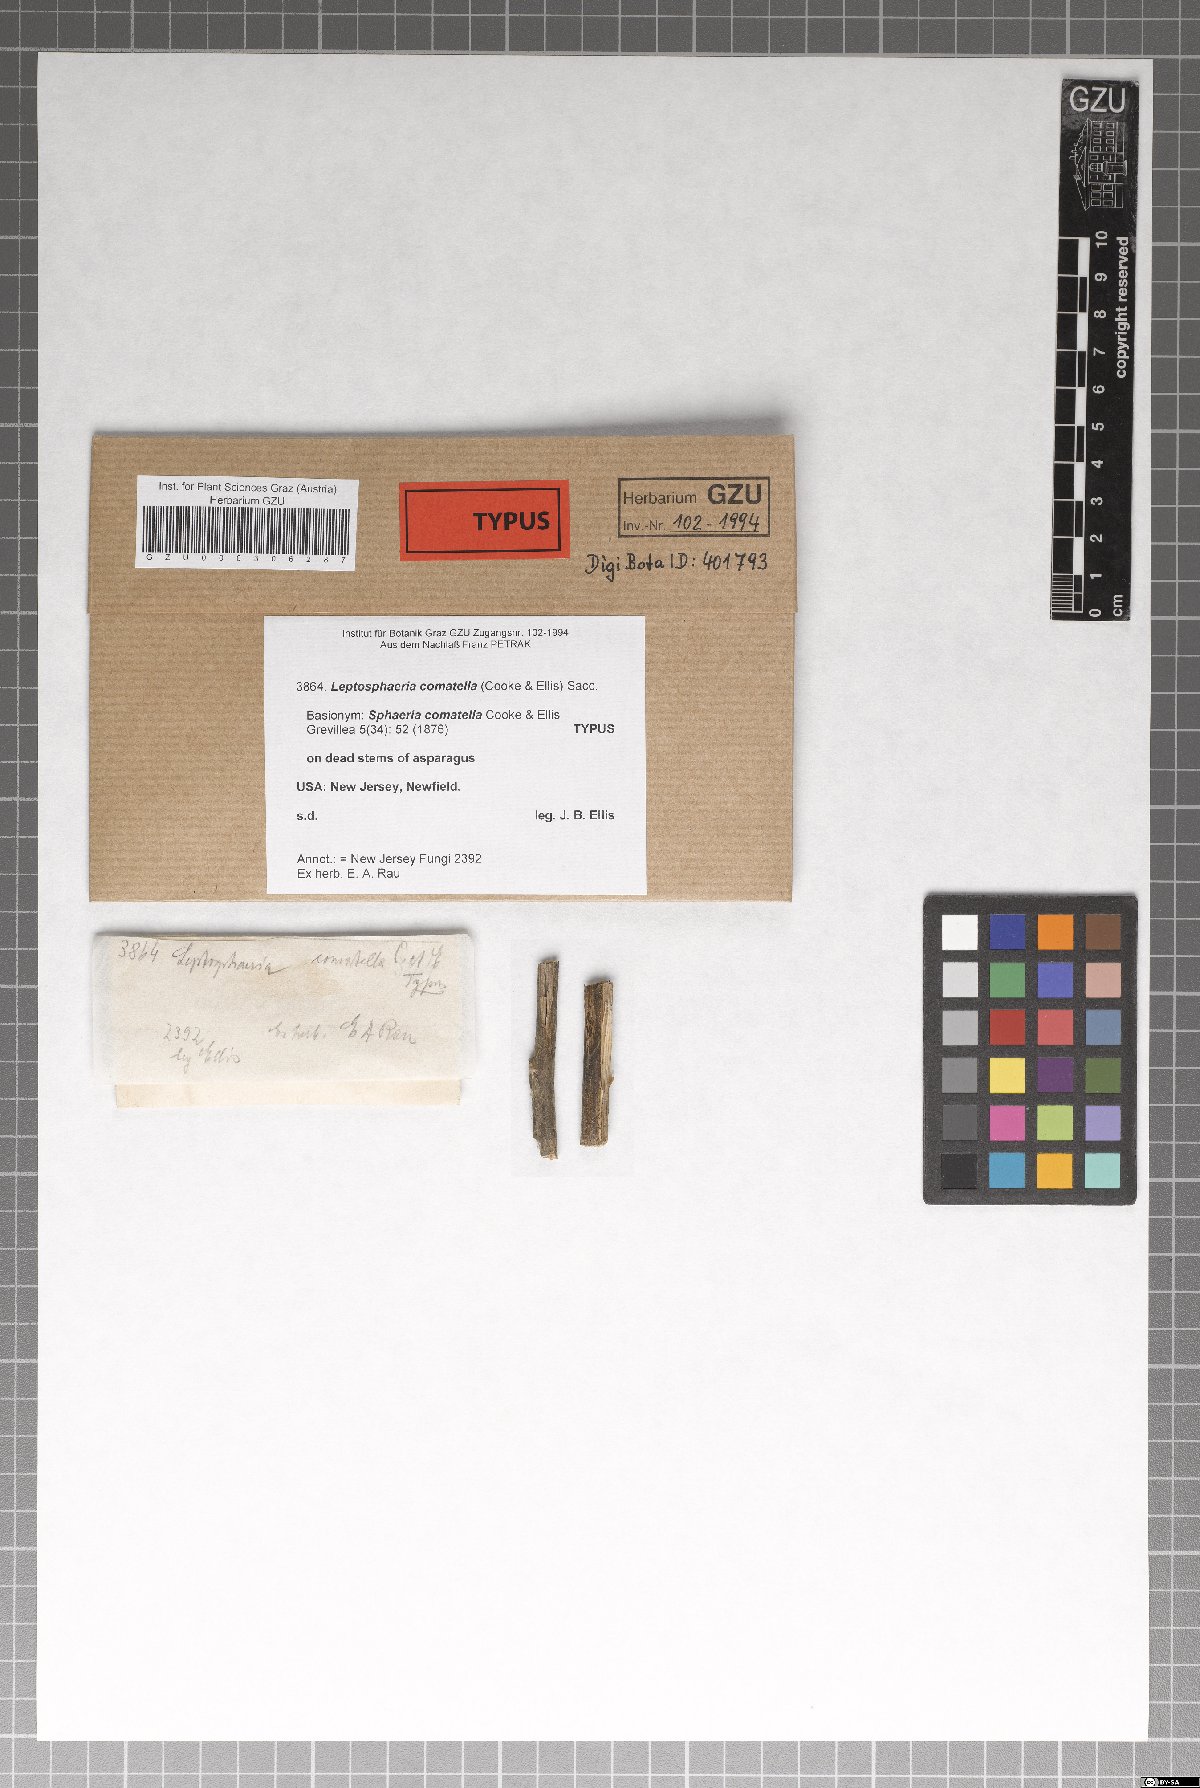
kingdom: Fungi
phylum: Ascomycota
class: Sordariomycetes
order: Xylariales
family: Xylariaceae
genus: Sphaeria
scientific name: Sphaeria
